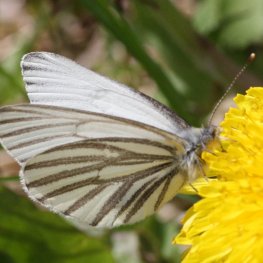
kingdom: Animalia
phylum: Arthropoda
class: Insecta
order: Lepidoptera
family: Pieridae
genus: Pieris
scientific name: Pieris oleracea
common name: Mustard White
